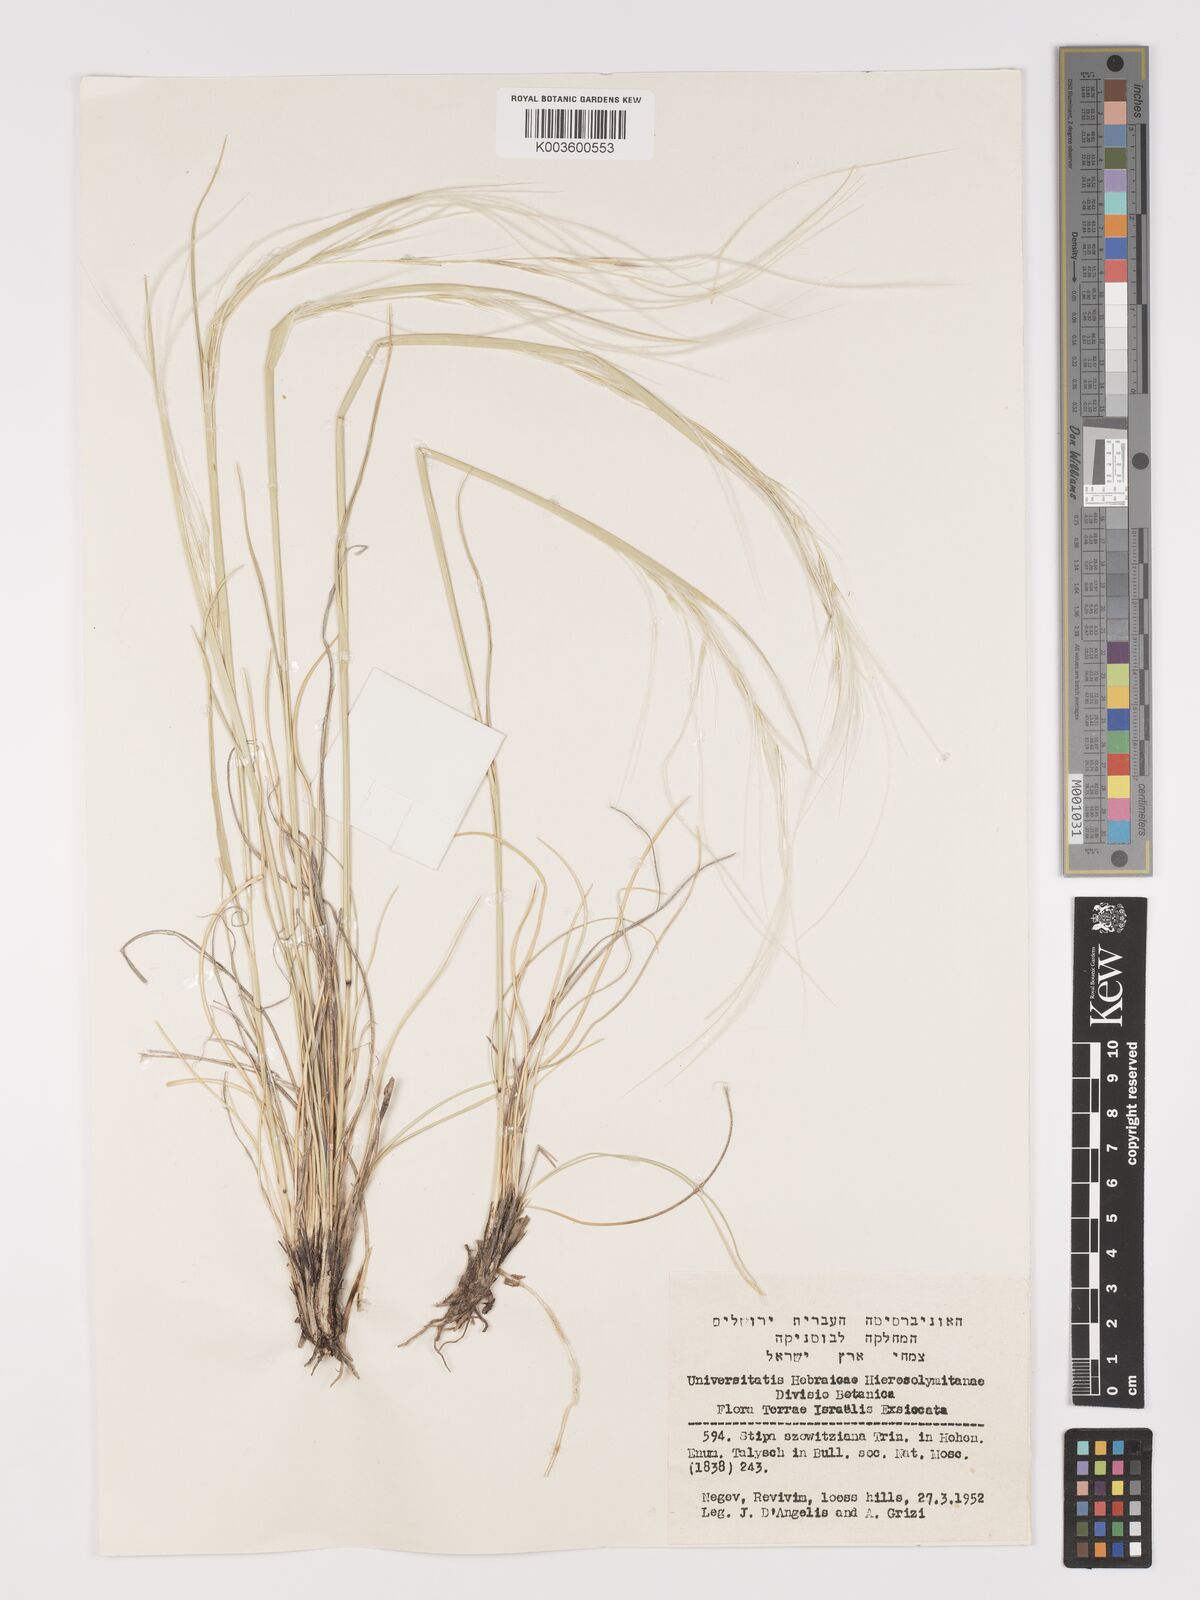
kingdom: Plantae
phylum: Tracheophyta
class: Liliopsida
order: Poales
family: Poaceae
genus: Stipa
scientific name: Stipa barbata
